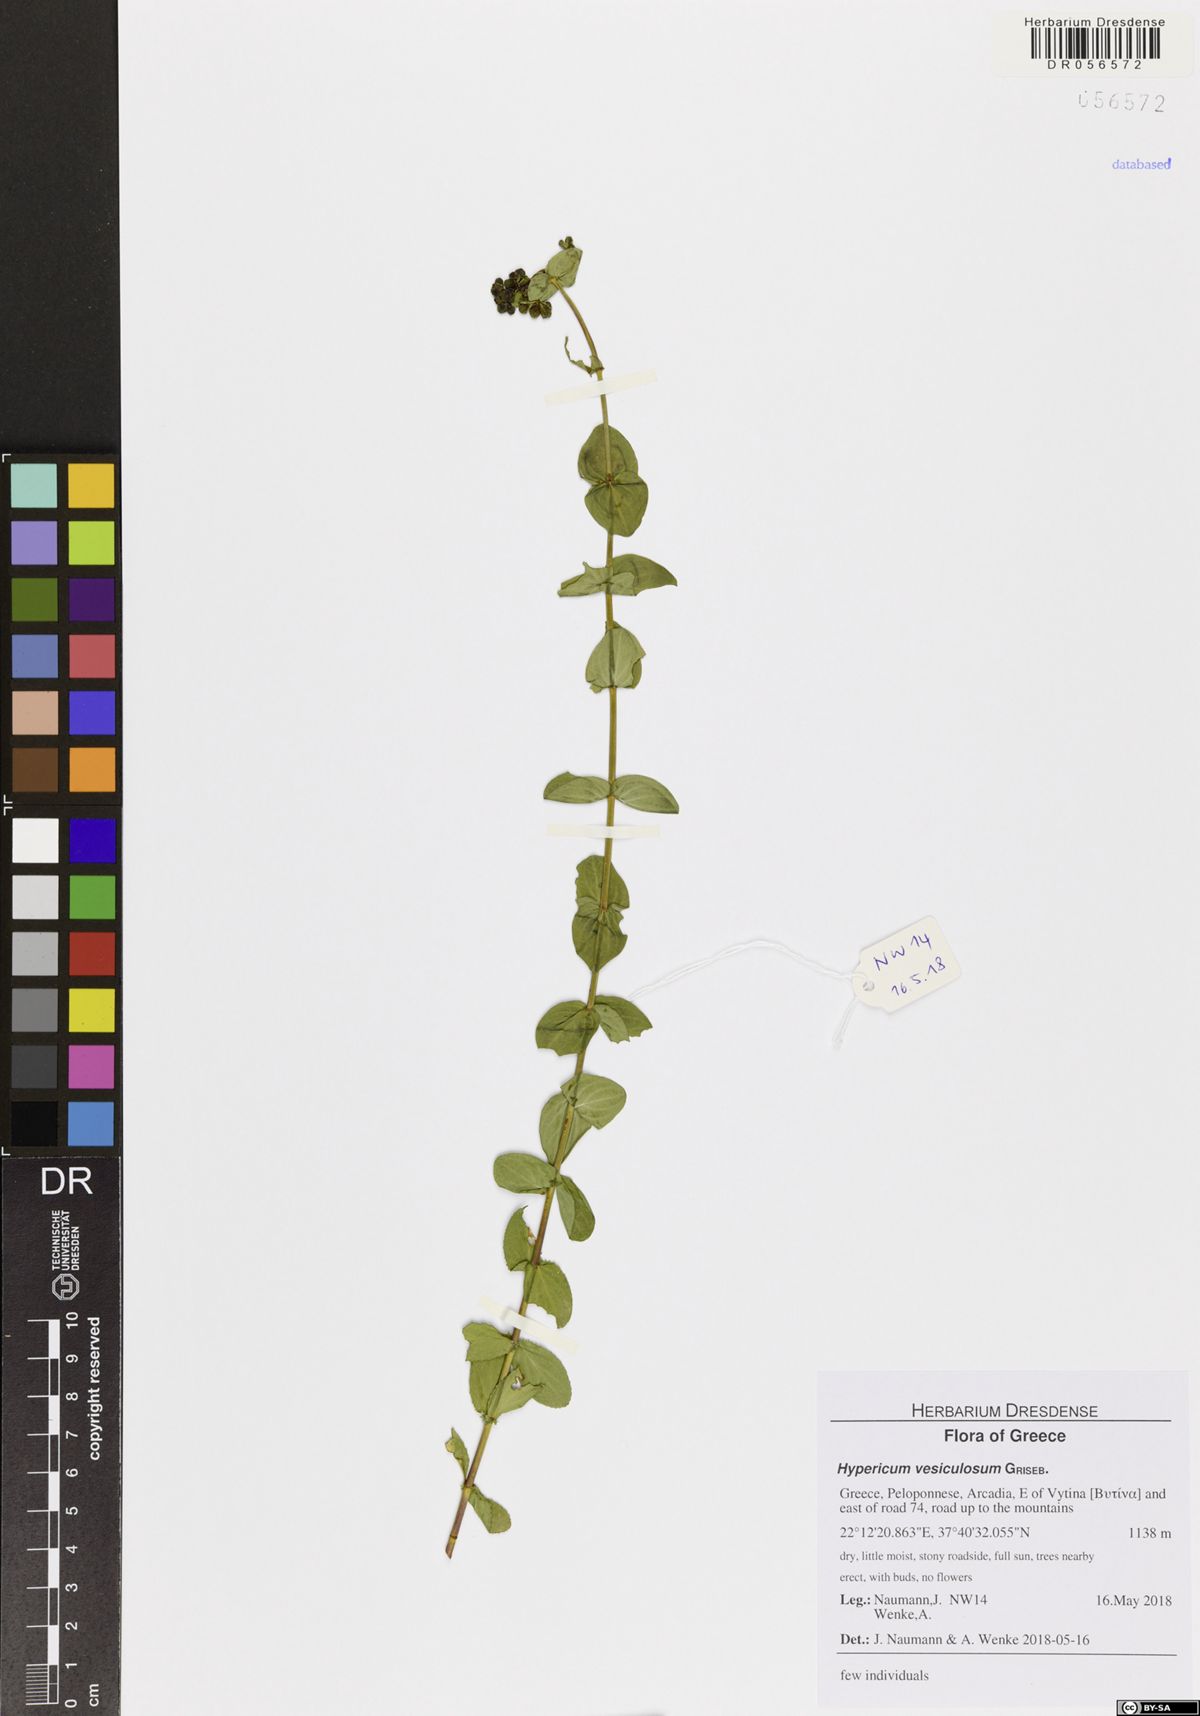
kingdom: Plantae
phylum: Tracheophyta
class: Magnoliopsida
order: Malpighiales
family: Hypericaceae
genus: Hypericum
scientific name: Hypericum vesiculosum
